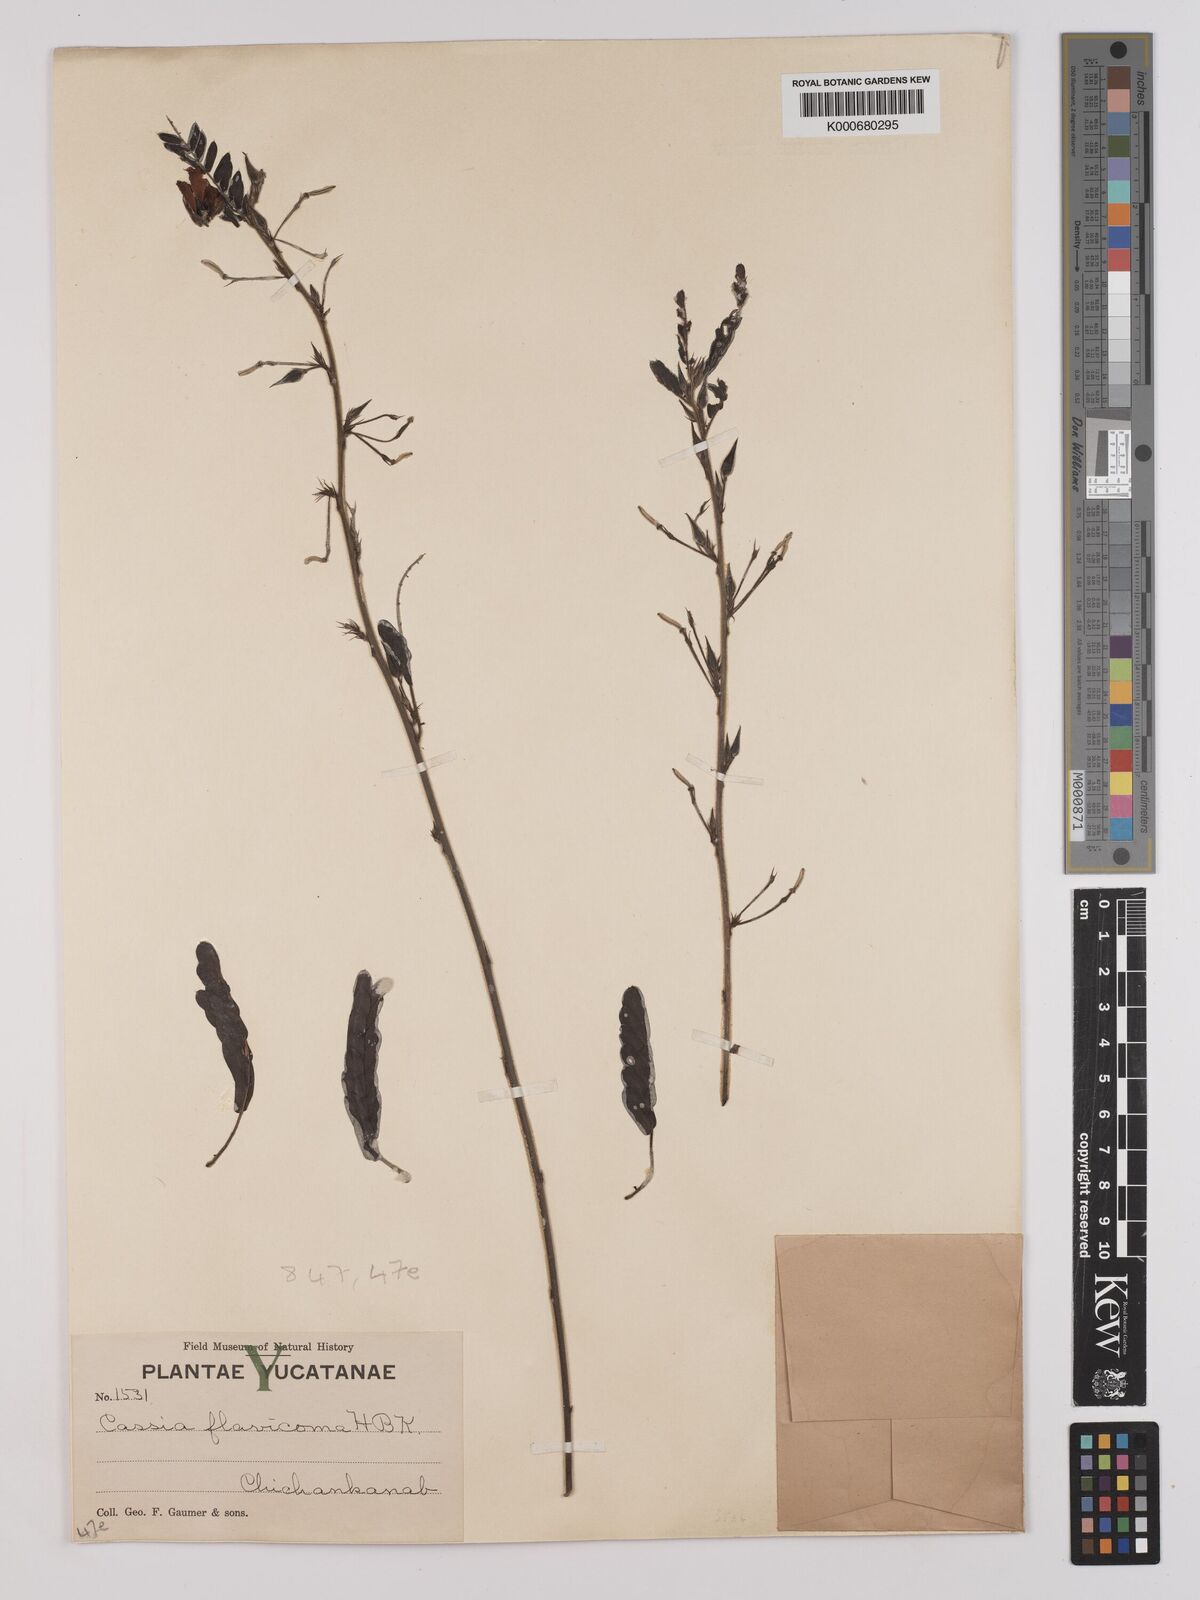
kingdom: Plantae
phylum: Tracheophyta
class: Magnoliopsida
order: Fabales
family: Fabaceae
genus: Chamaecrista
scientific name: Chamaecrista glandulosa
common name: Wild peas
